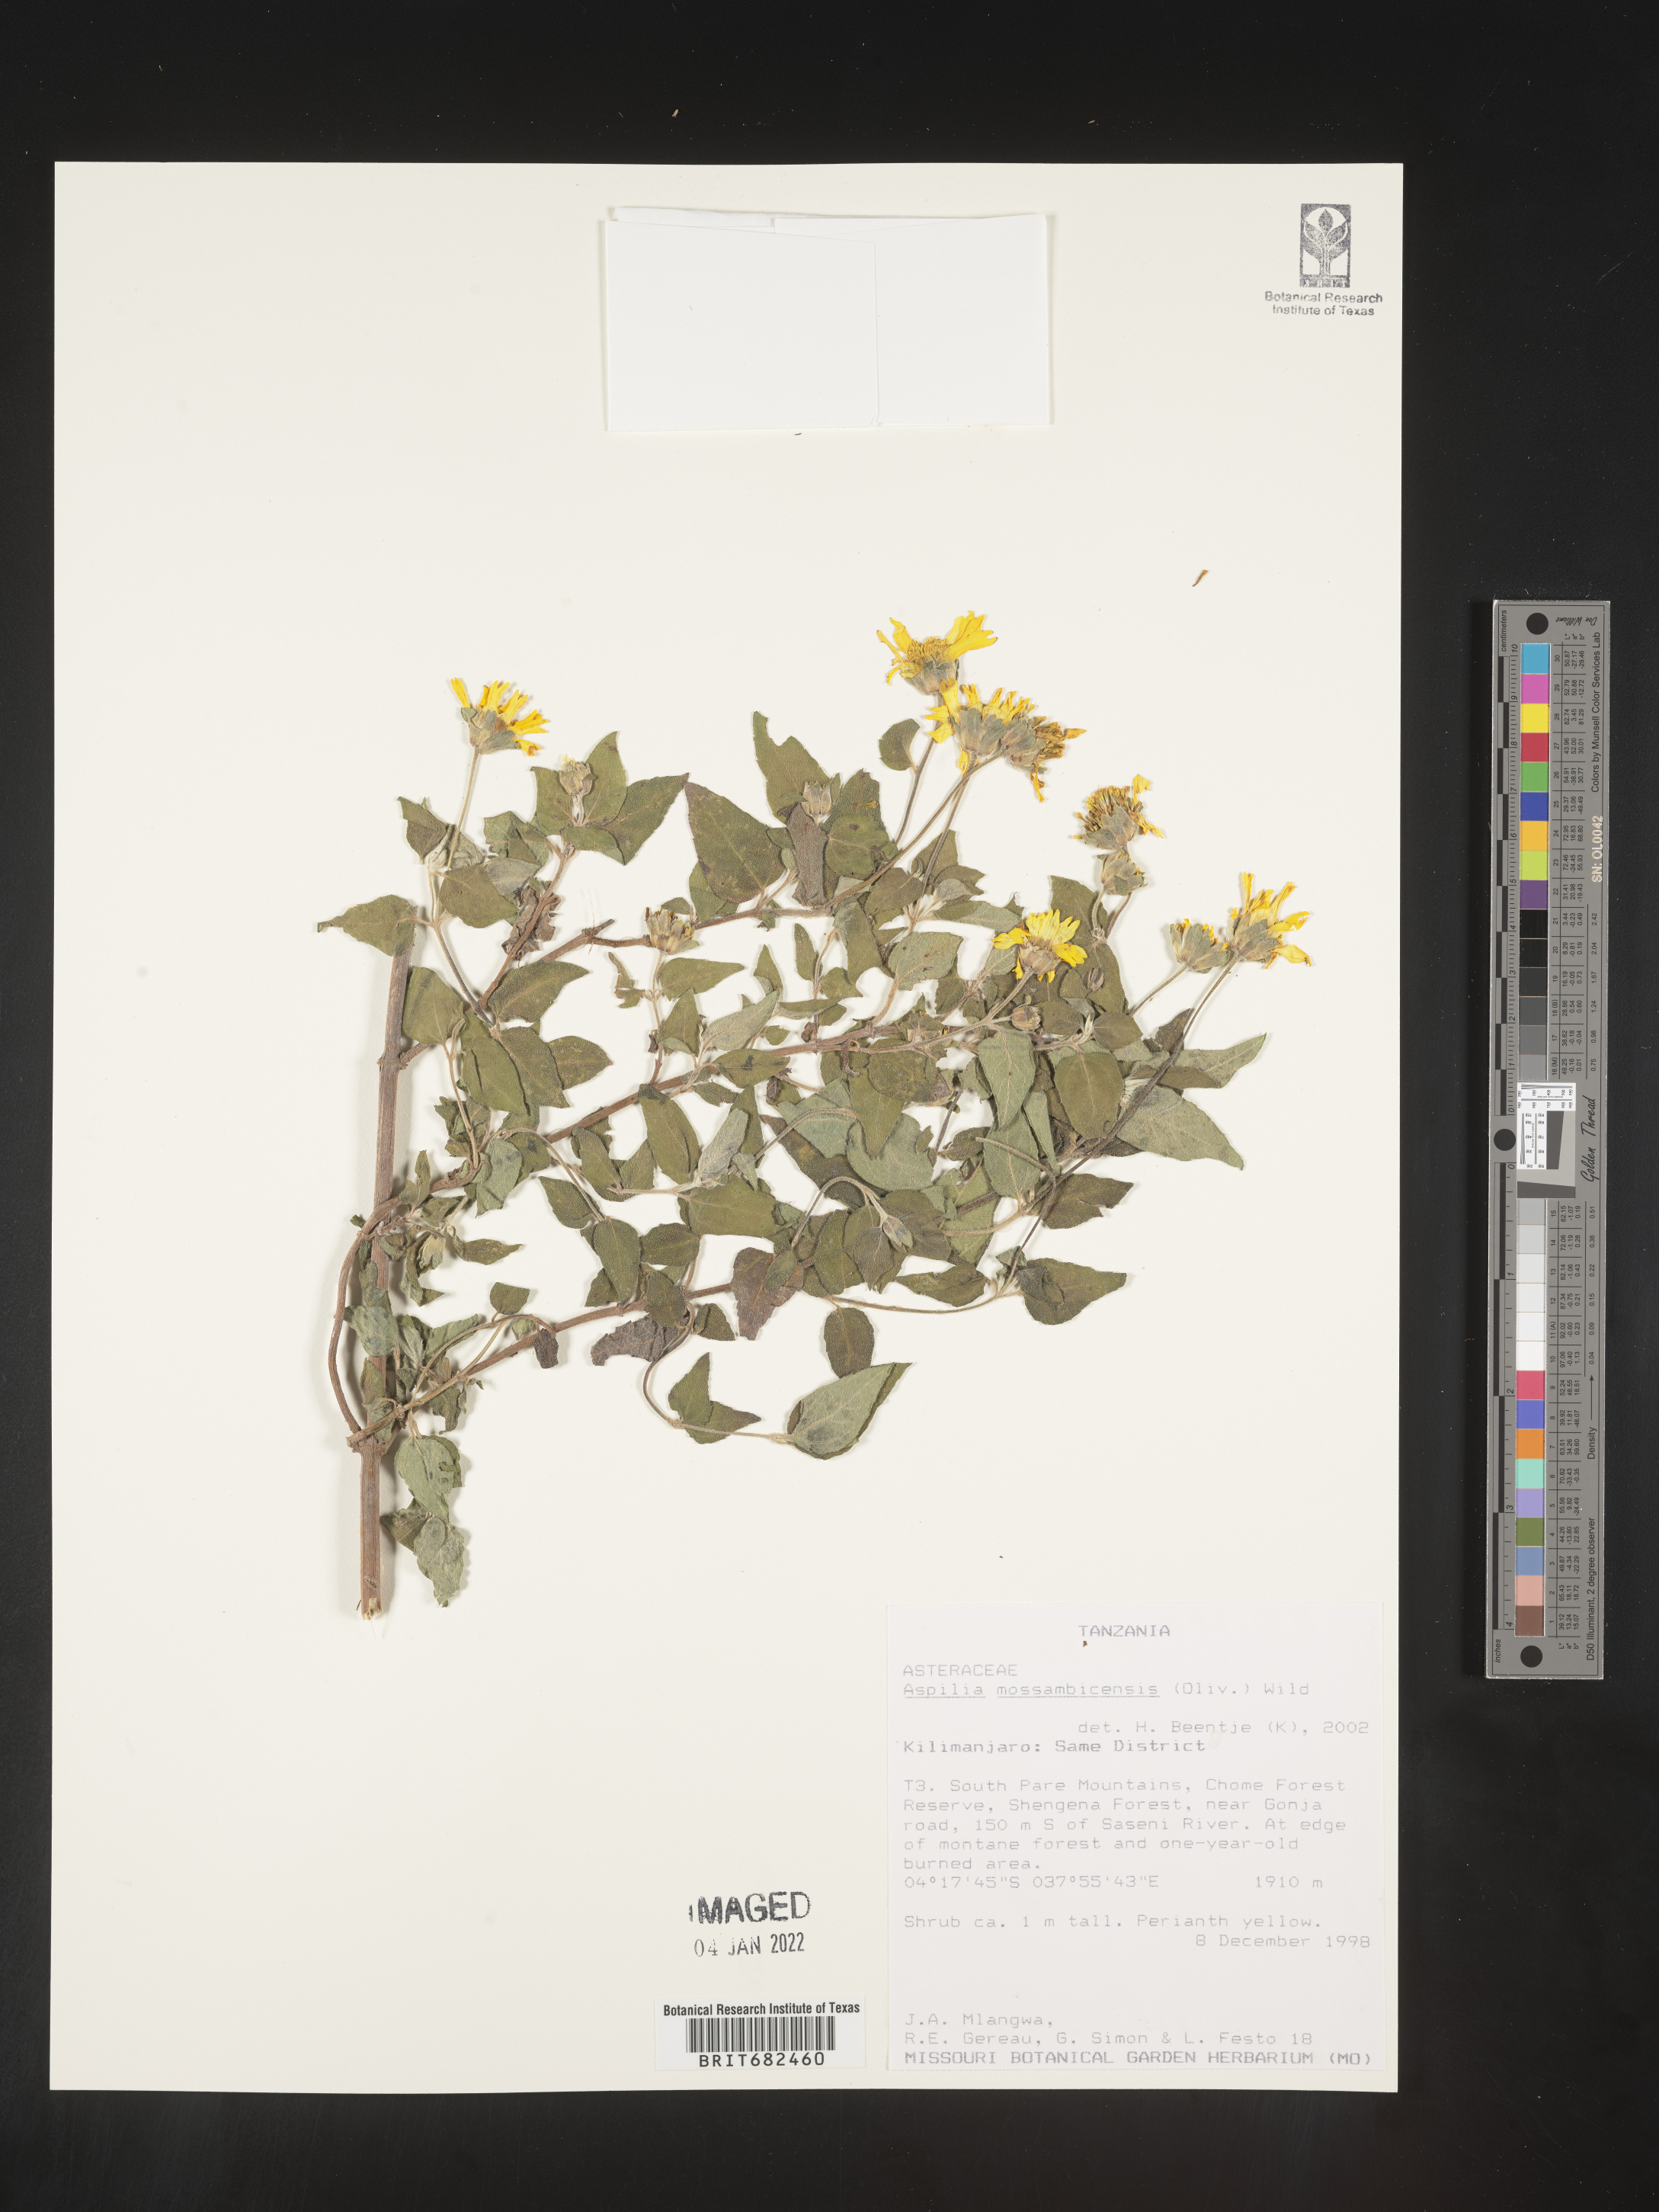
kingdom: Plantae
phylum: Tracheophyta
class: Magnoliopsida
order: Asterales
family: Asteraceae
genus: Aspilia
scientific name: Aspilia
